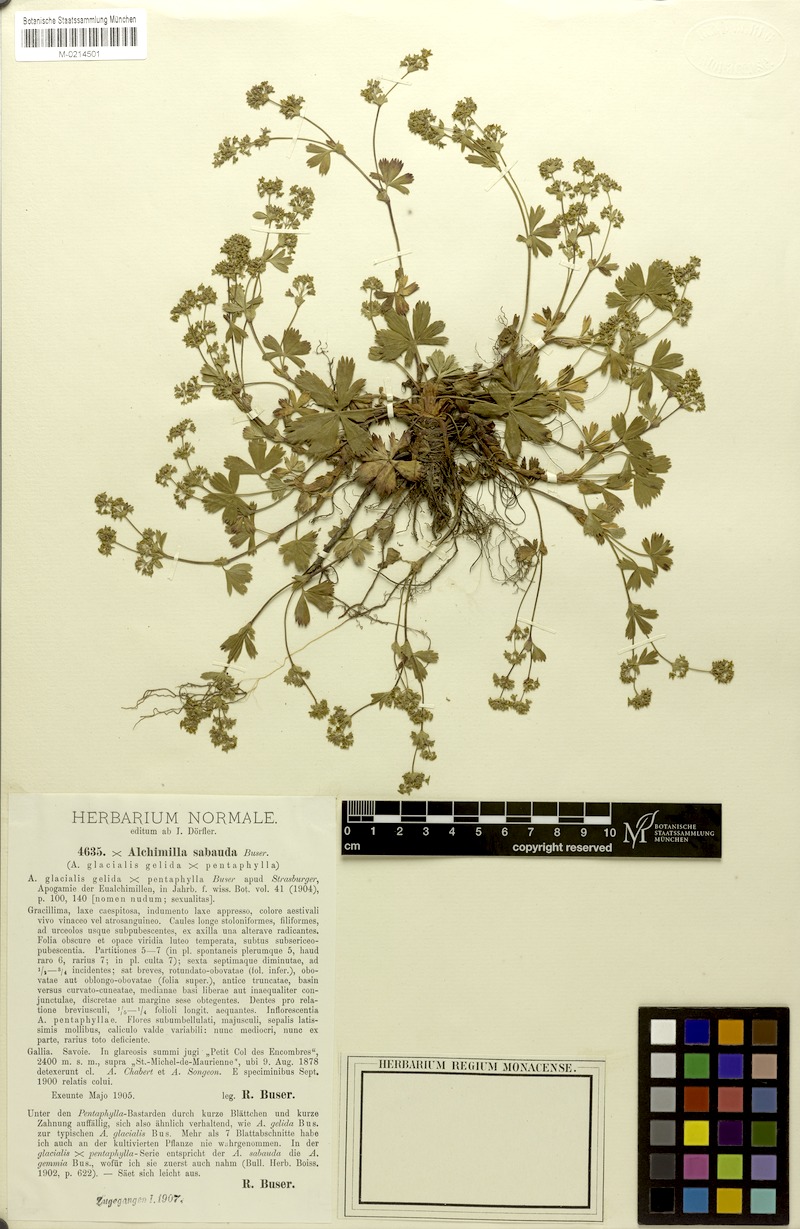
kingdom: Plantae
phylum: Tracheophyta
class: Magnoliopsida
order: Rosales
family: Rosaceae
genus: Alchemilla
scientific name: Alchemilla trullata
